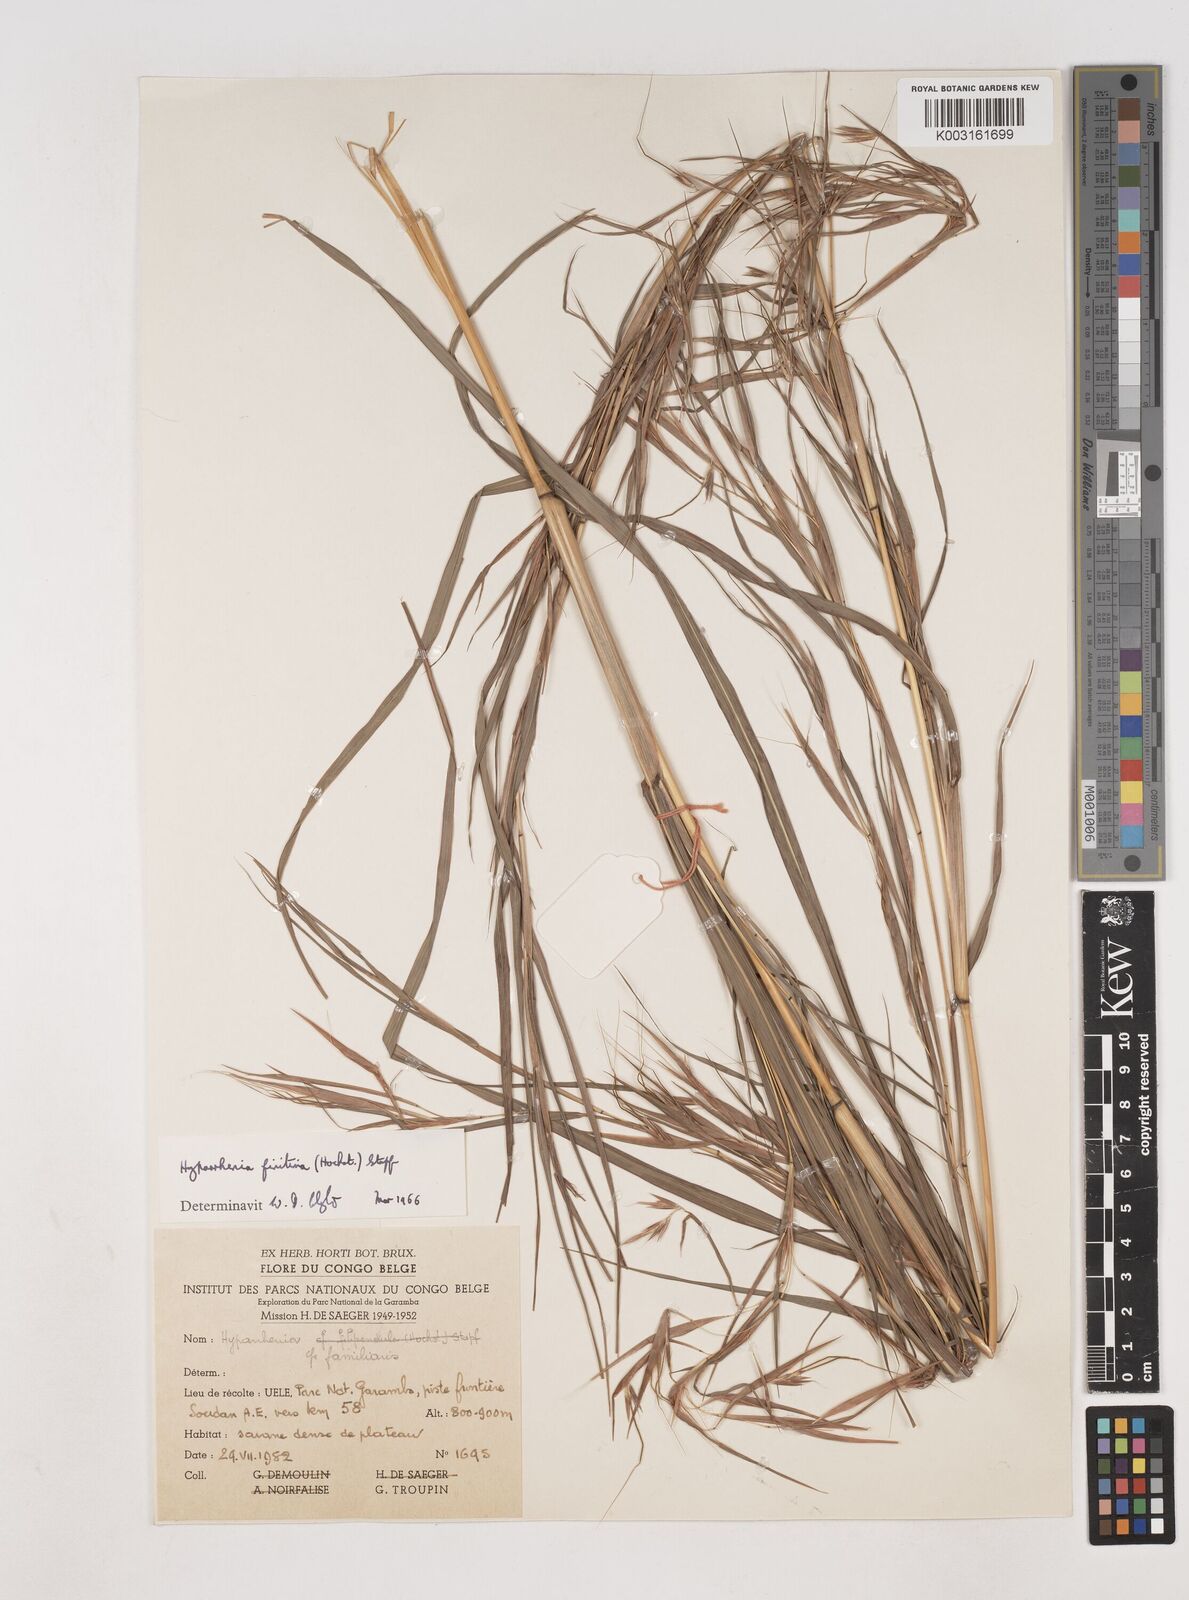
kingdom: Plantae
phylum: Tracheophyta
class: Liliopsida
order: Poales
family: Poaceae
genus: Hyparrhenia
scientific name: Hyparrhenia finitima
